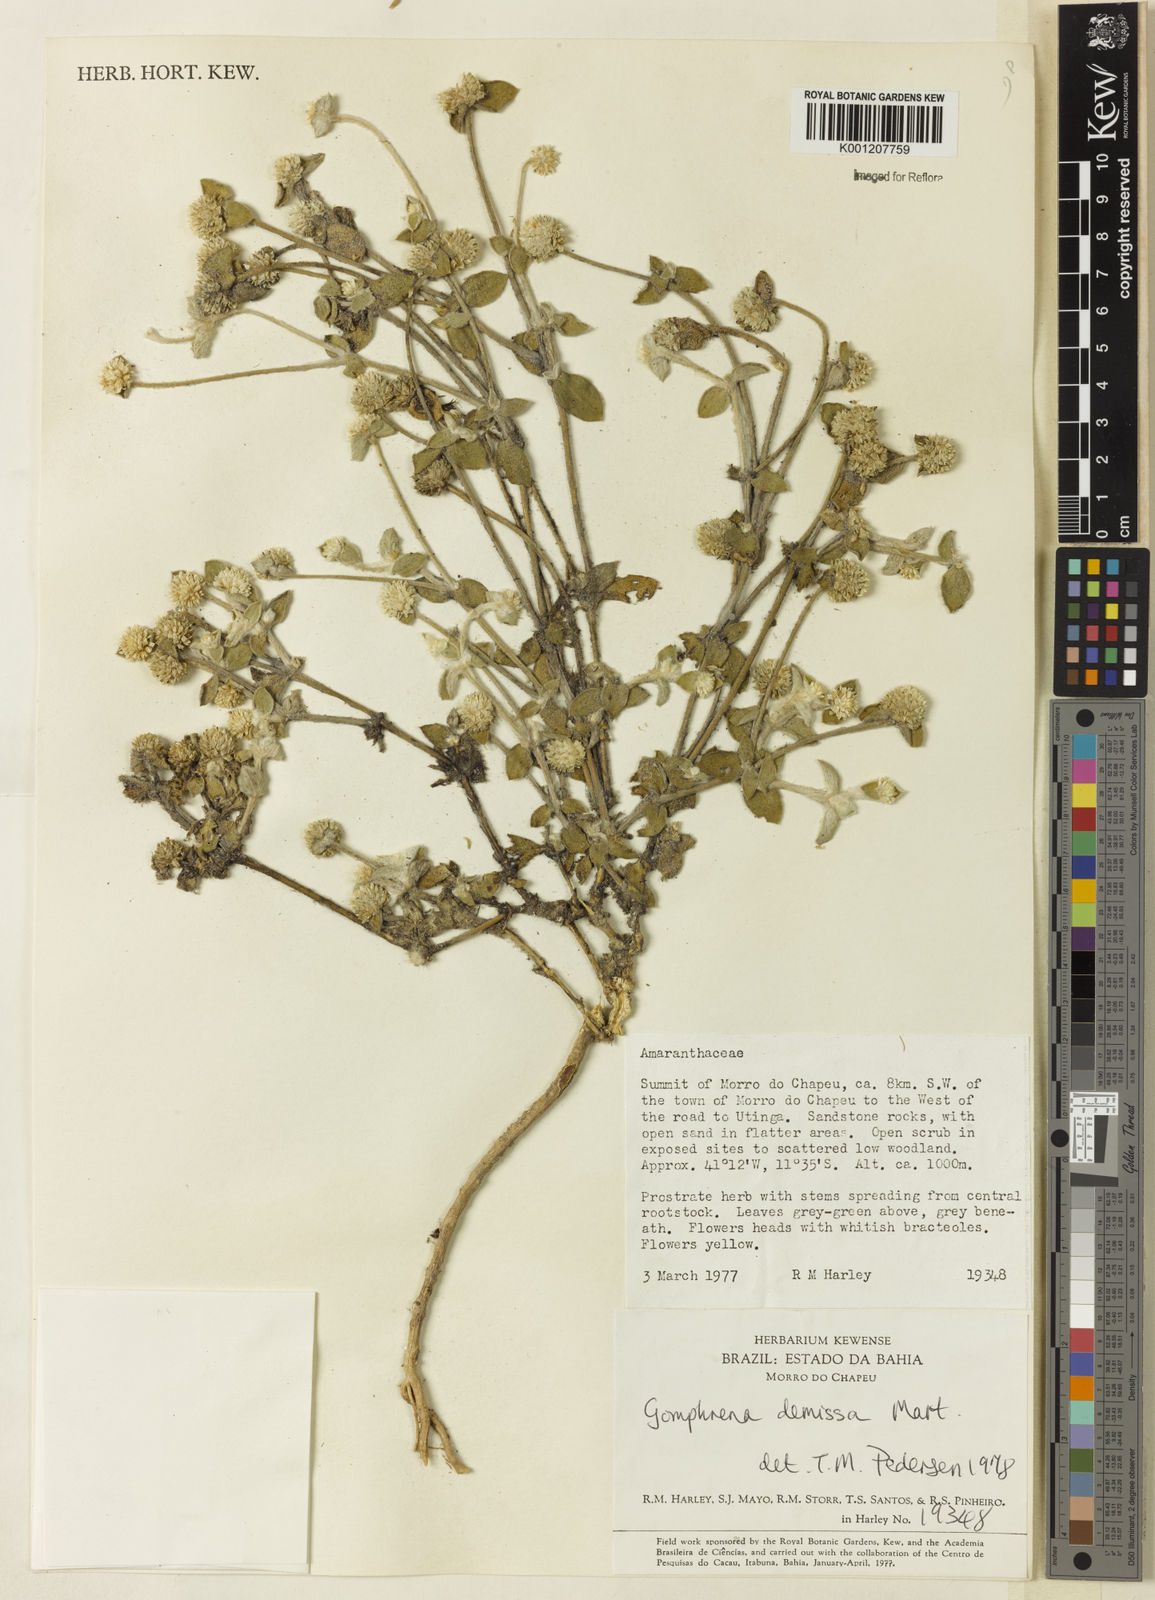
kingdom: Plantae
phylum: Tracheophyta
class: Magnoliopsida
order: Caryophyllales
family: Amaranthaceae
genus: Gomphrena
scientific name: Gomphrena demissa
